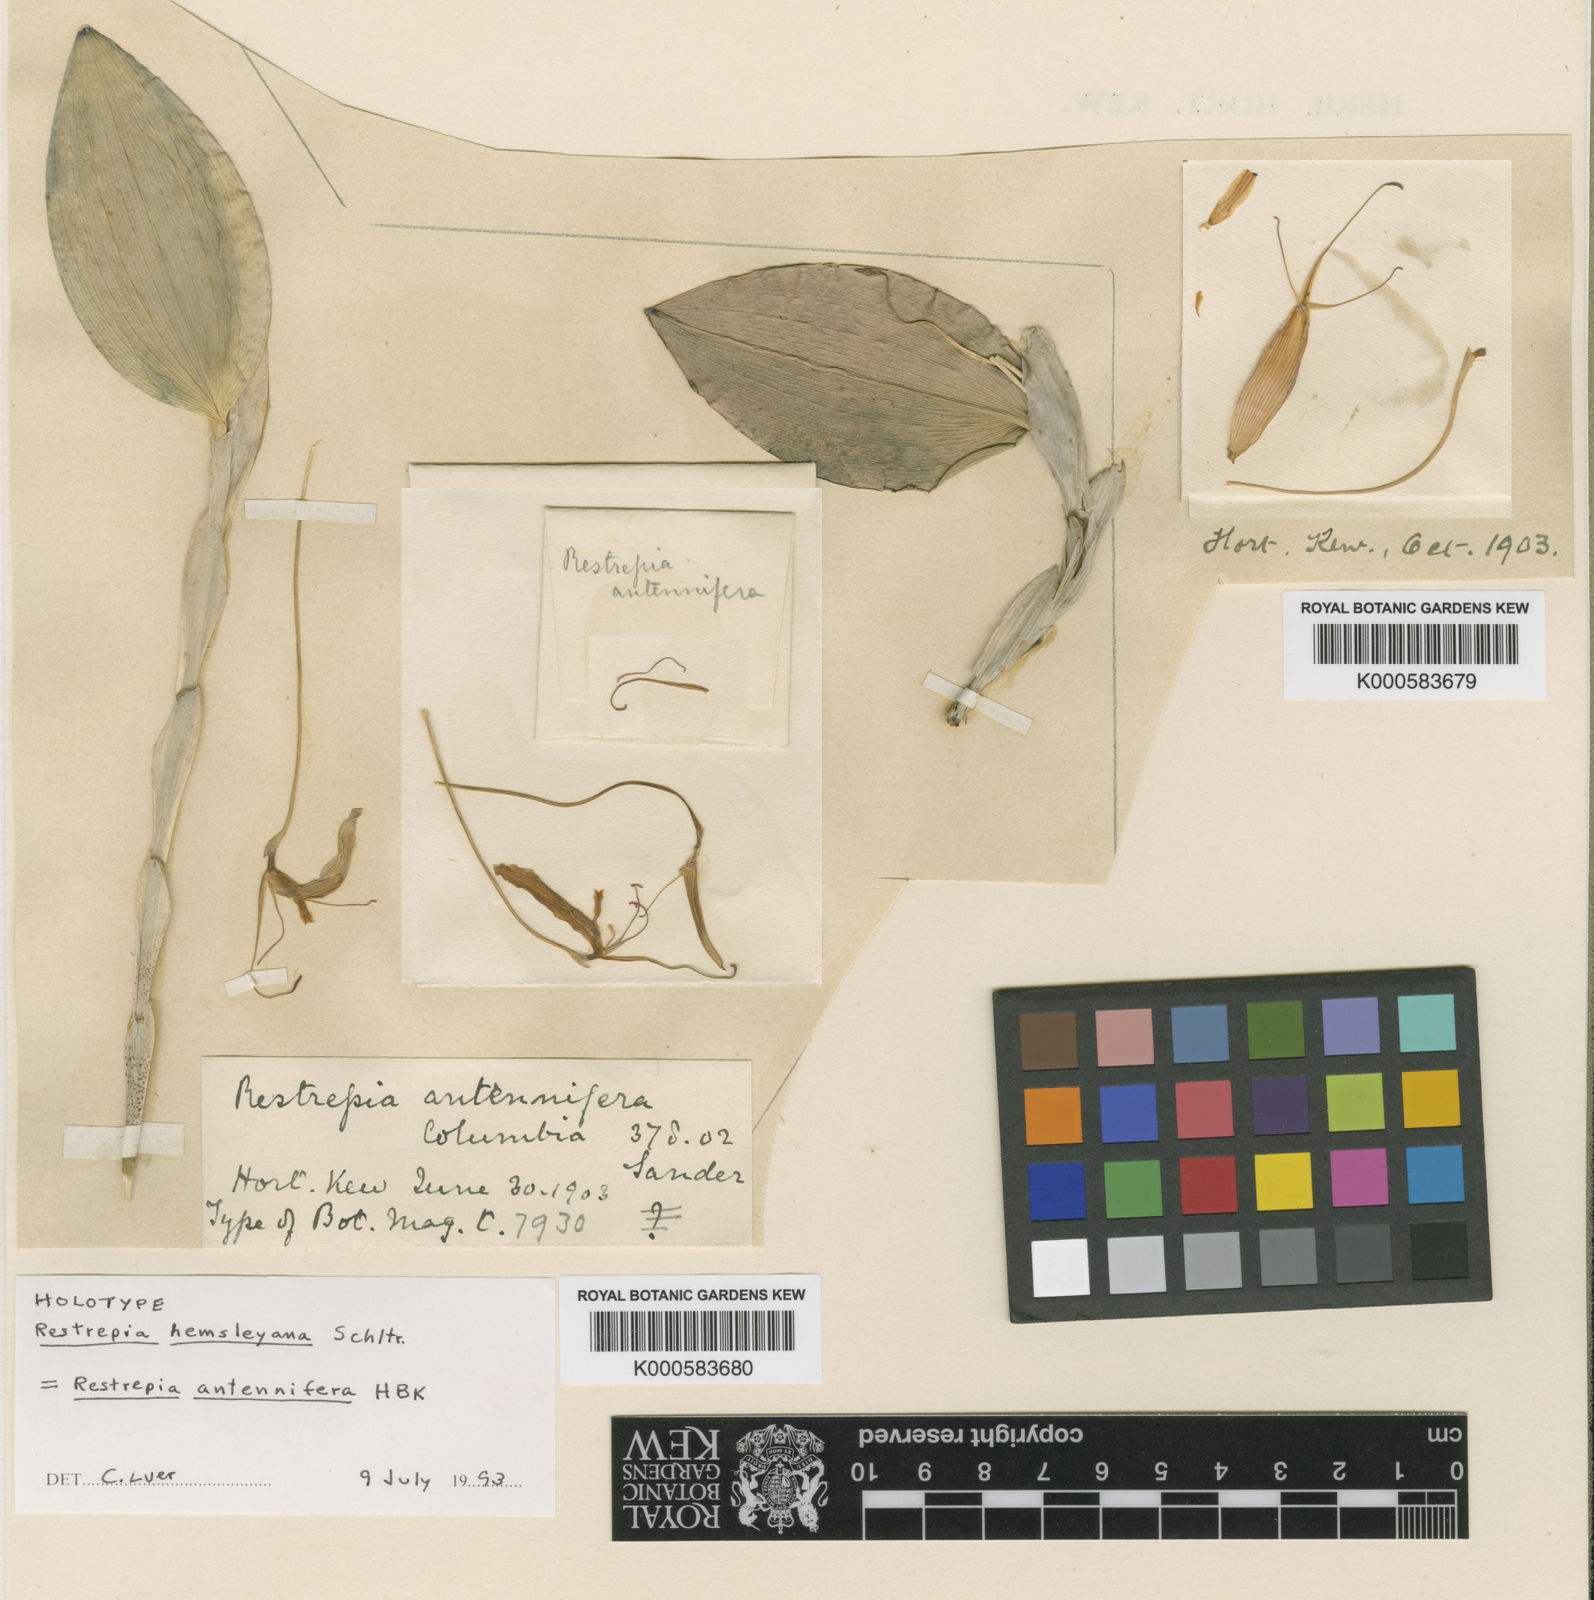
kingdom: Plantae
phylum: Tracheophyta
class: Liliopsida
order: Asparagales
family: Orchidaceae
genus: Restrepia
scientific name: Restrepia antennifera
